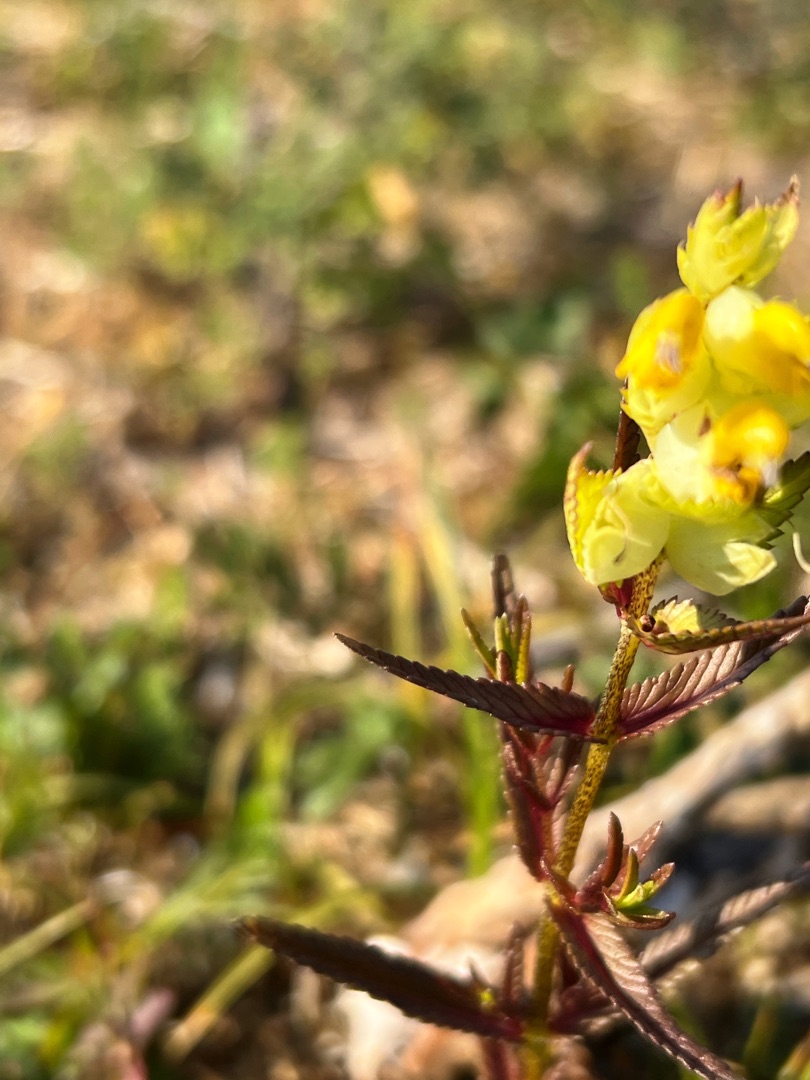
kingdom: Plantae
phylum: Tracheophyta
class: Magnoliopsida
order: Lamiales
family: Orobanchaceae
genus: Rhinanthus
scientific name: Rhinanthus minor
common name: Liden skjaller
